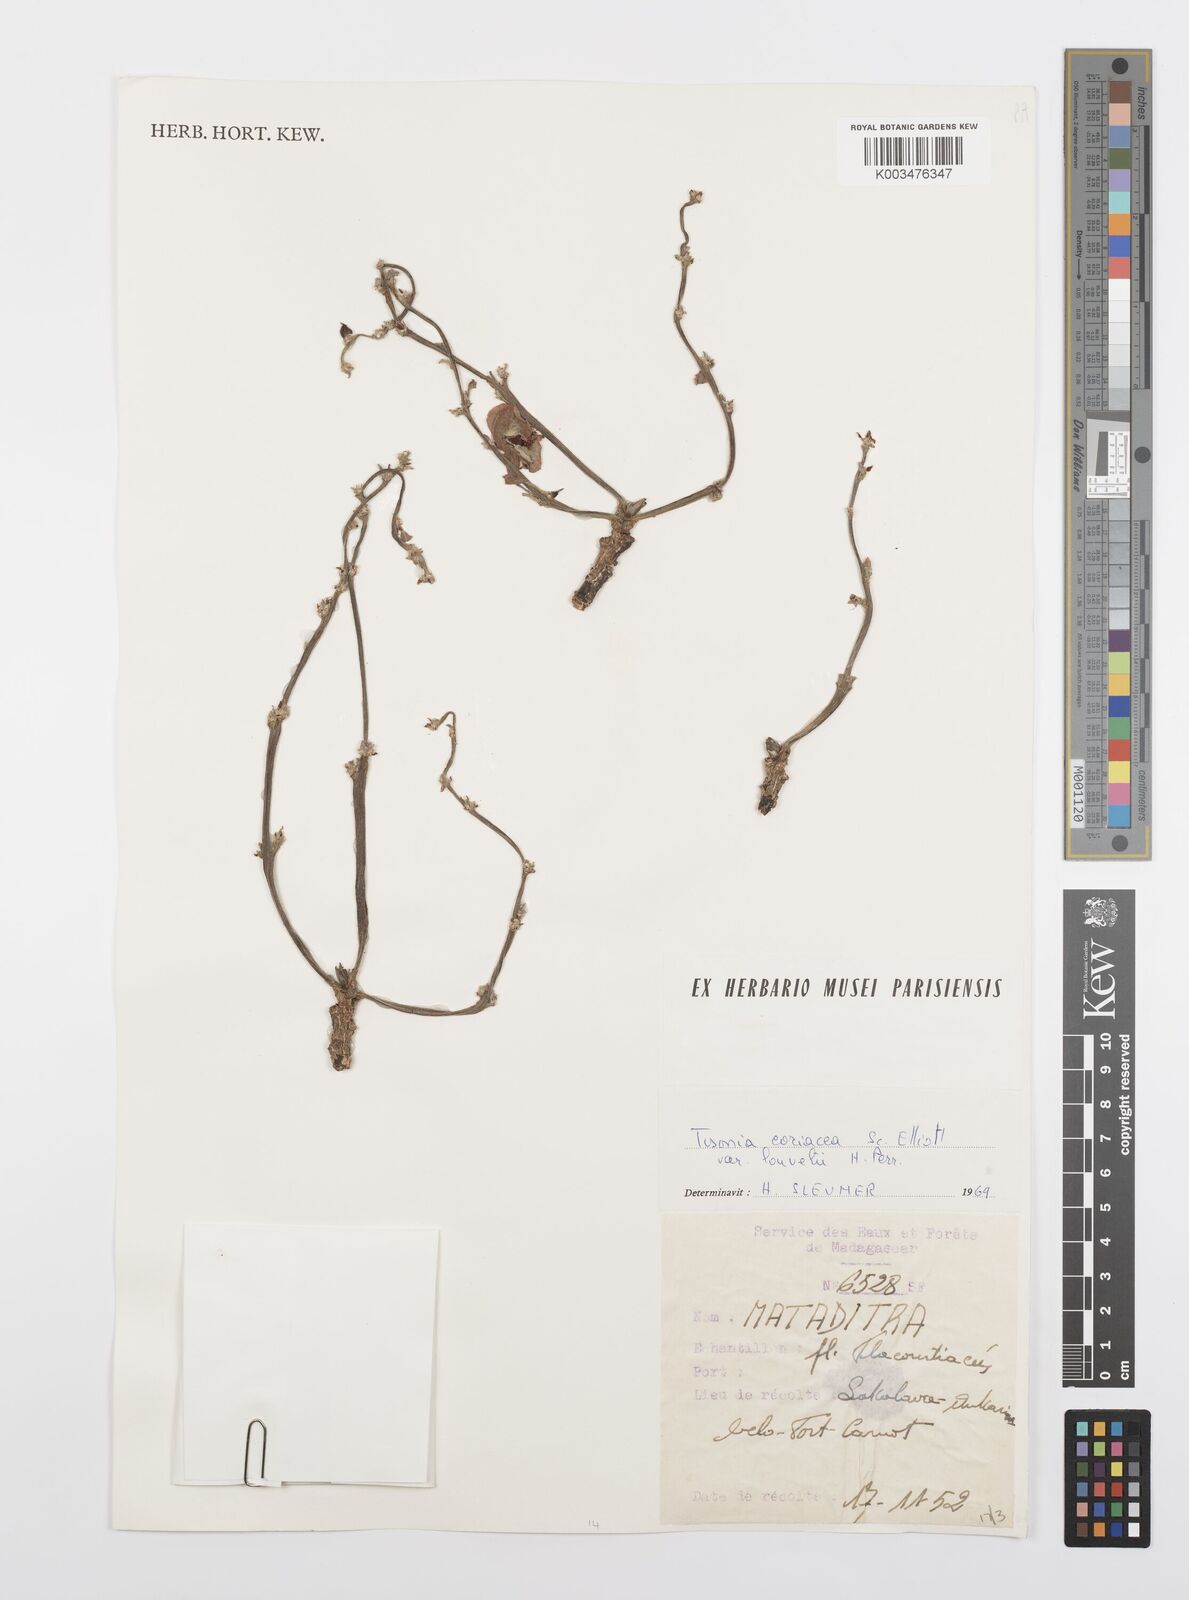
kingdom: Plantae
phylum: Tracheophyta
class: Magnoliopsida
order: Malpighiales
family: Salicaceae
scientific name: Salicaceae
